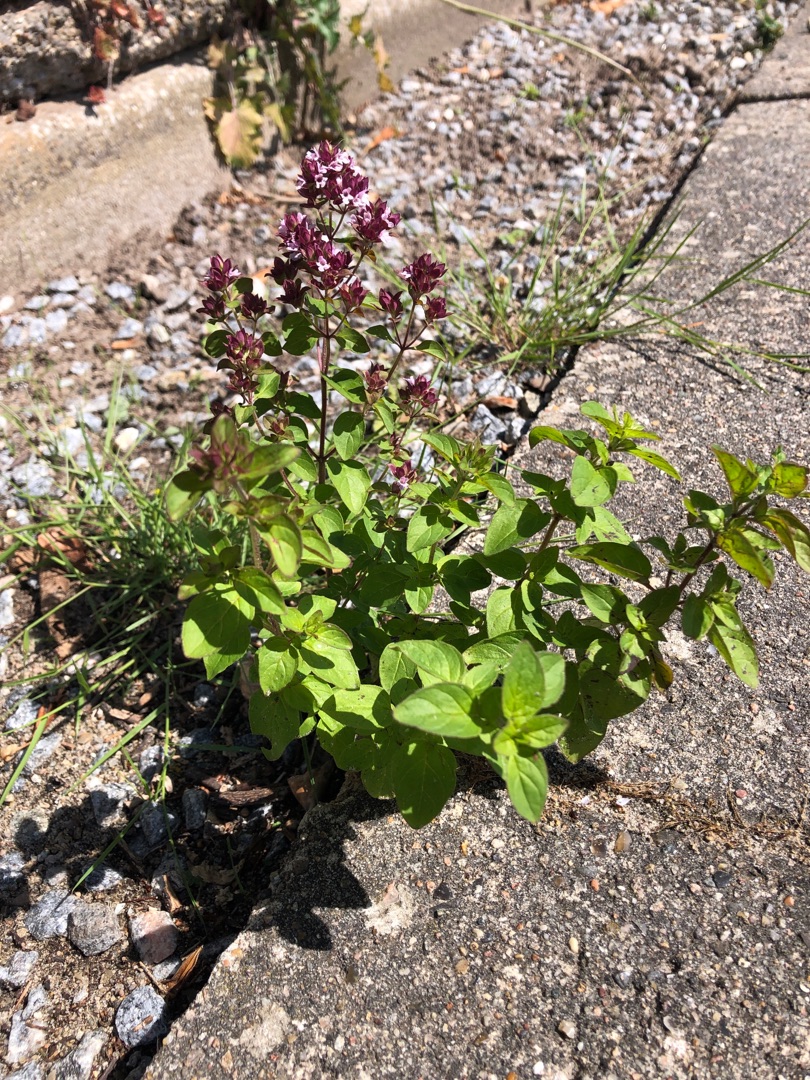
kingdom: Plantae
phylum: Tracheophyta
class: Magnoliopsida
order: Lamiales
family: Lamiaceae
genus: Origanum
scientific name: Origanum vulgare
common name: Merian
